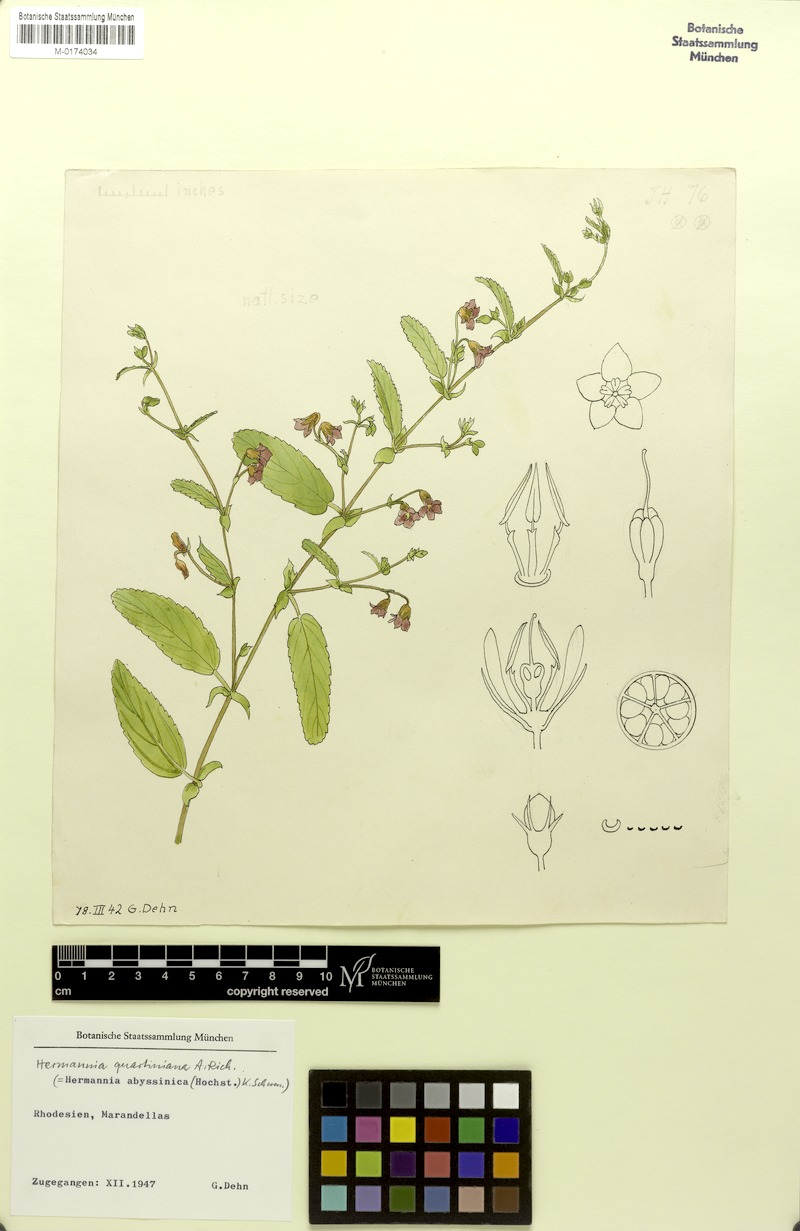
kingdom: Plantae
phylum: Tracheophyta
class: Magnoliopsida
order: Malvales
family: Malvaceae
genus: Hermannia
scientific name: Hermannia quartiniana
